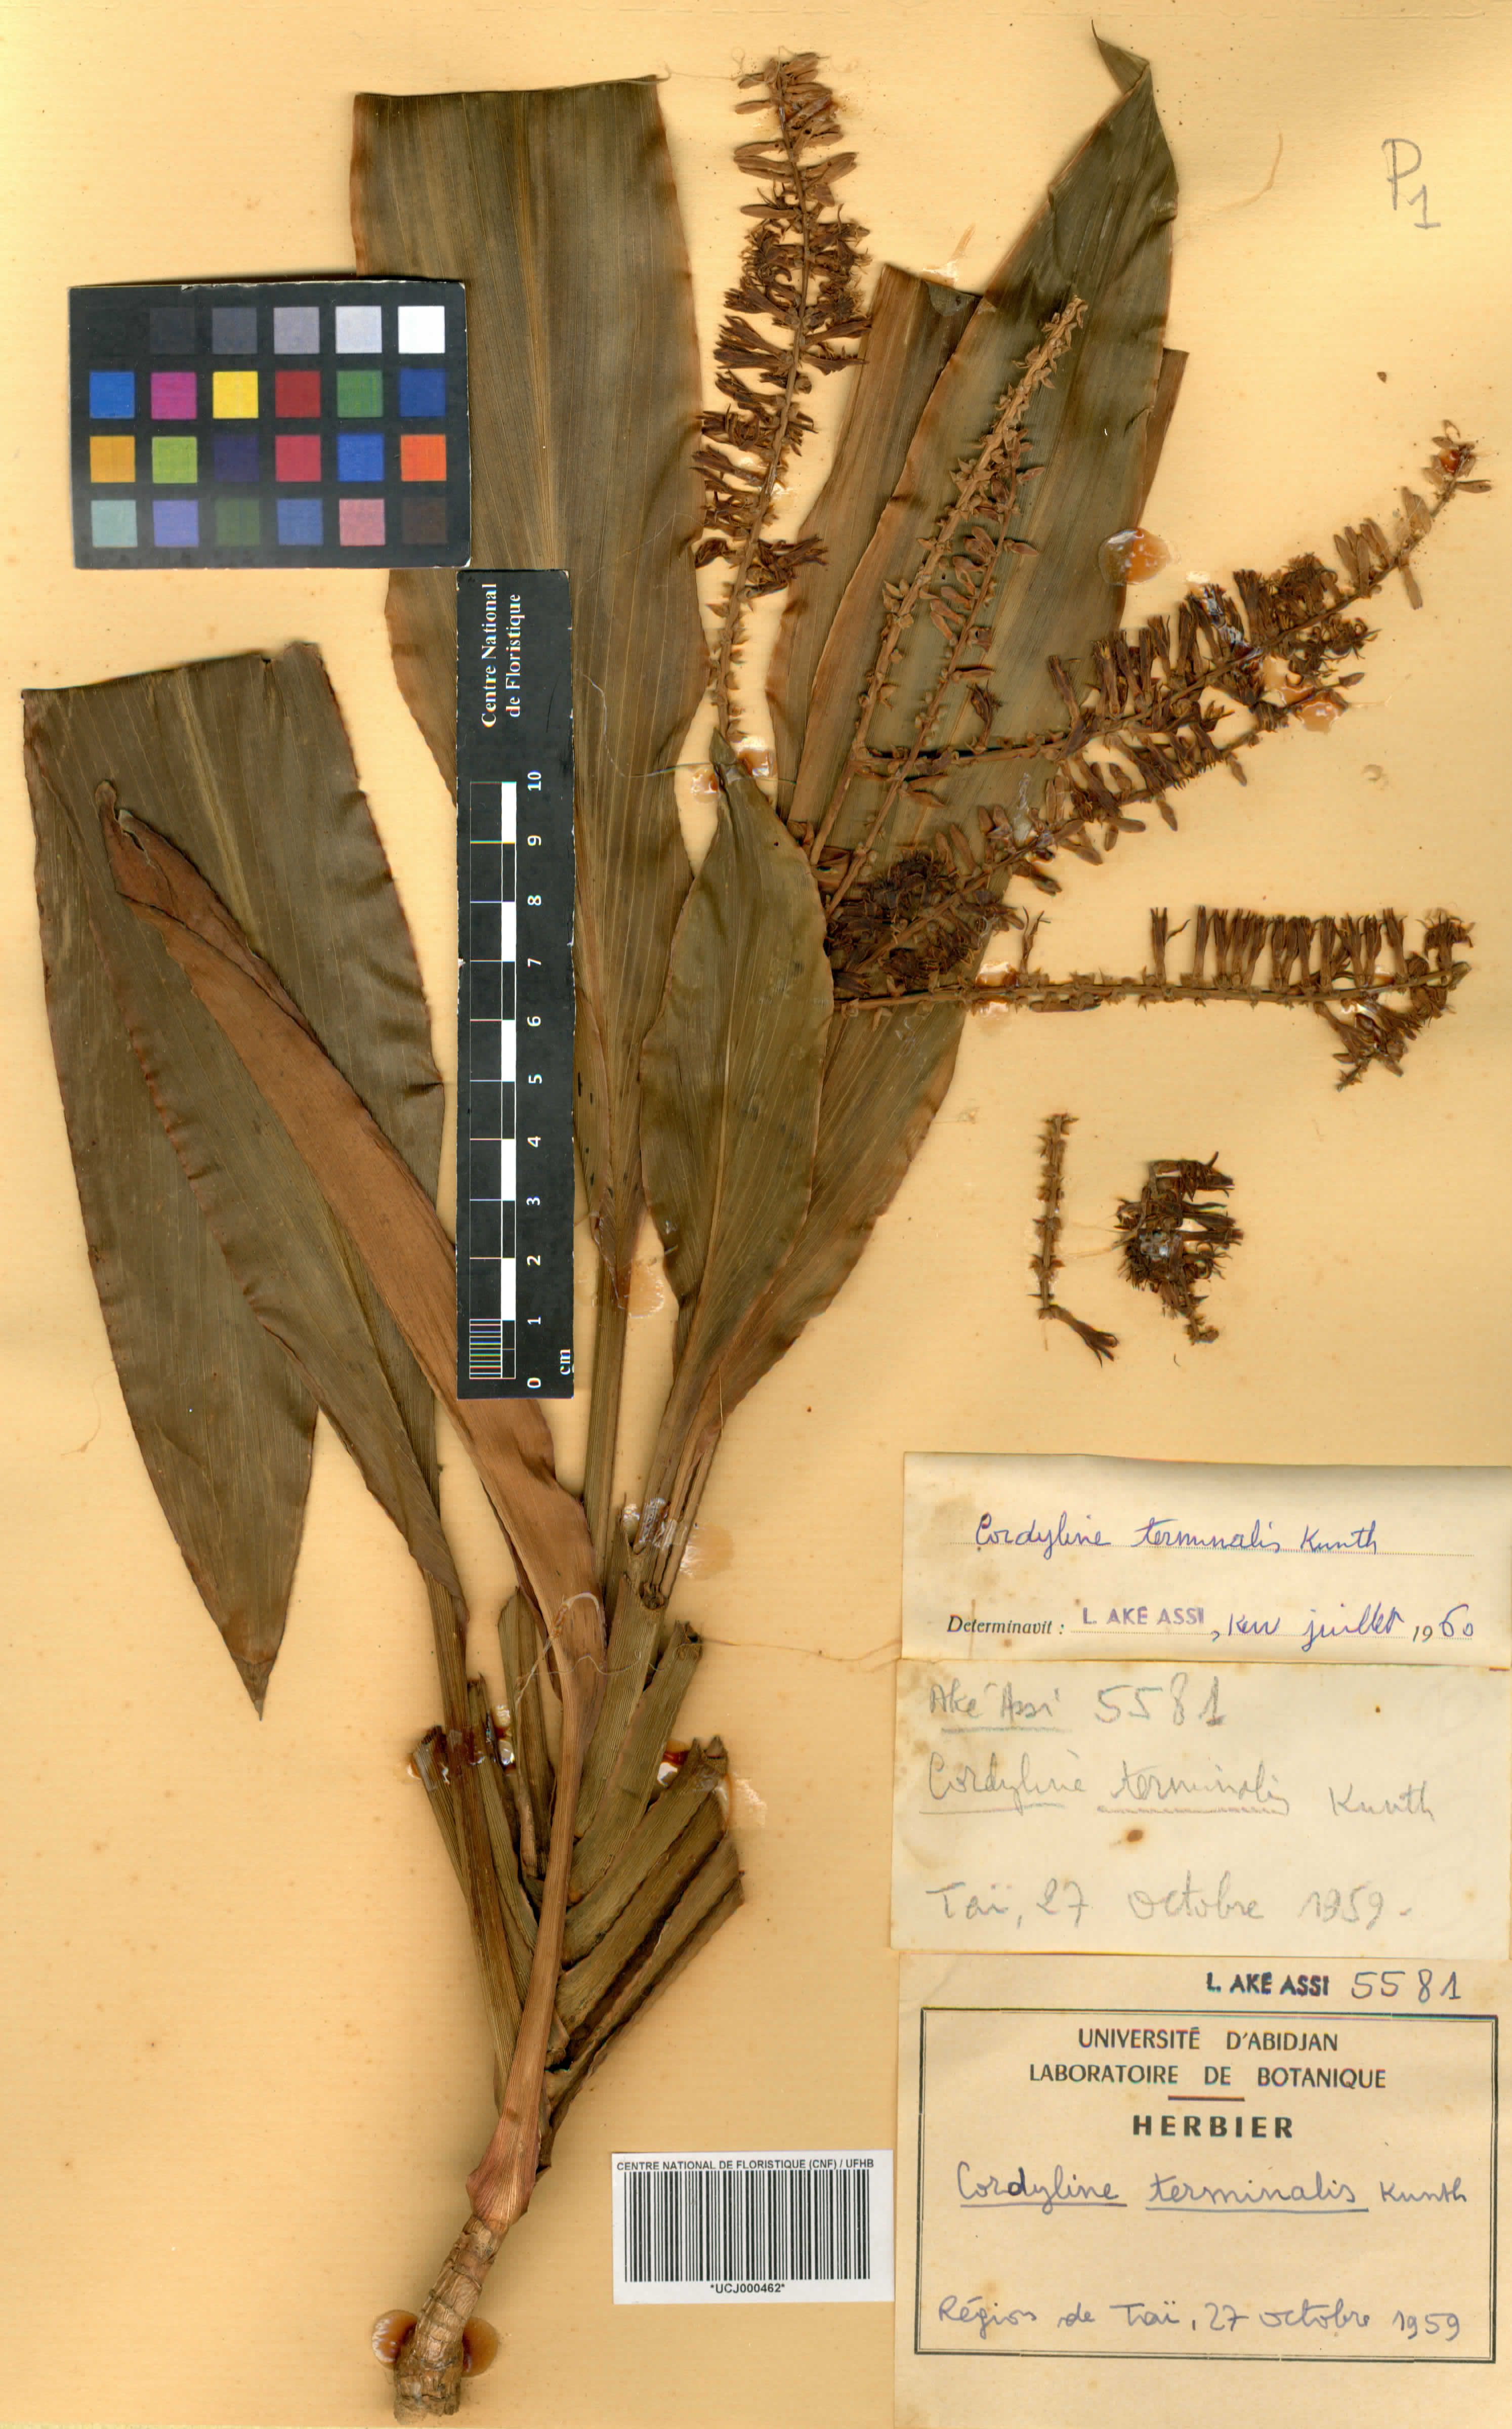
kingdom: Plantae
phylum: Tracheophyta
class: Liliopsida
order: Asparagales
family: Asparagaceae
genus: Cordyline
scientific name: Cordyline fruticosa
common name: Good-luck-plant
